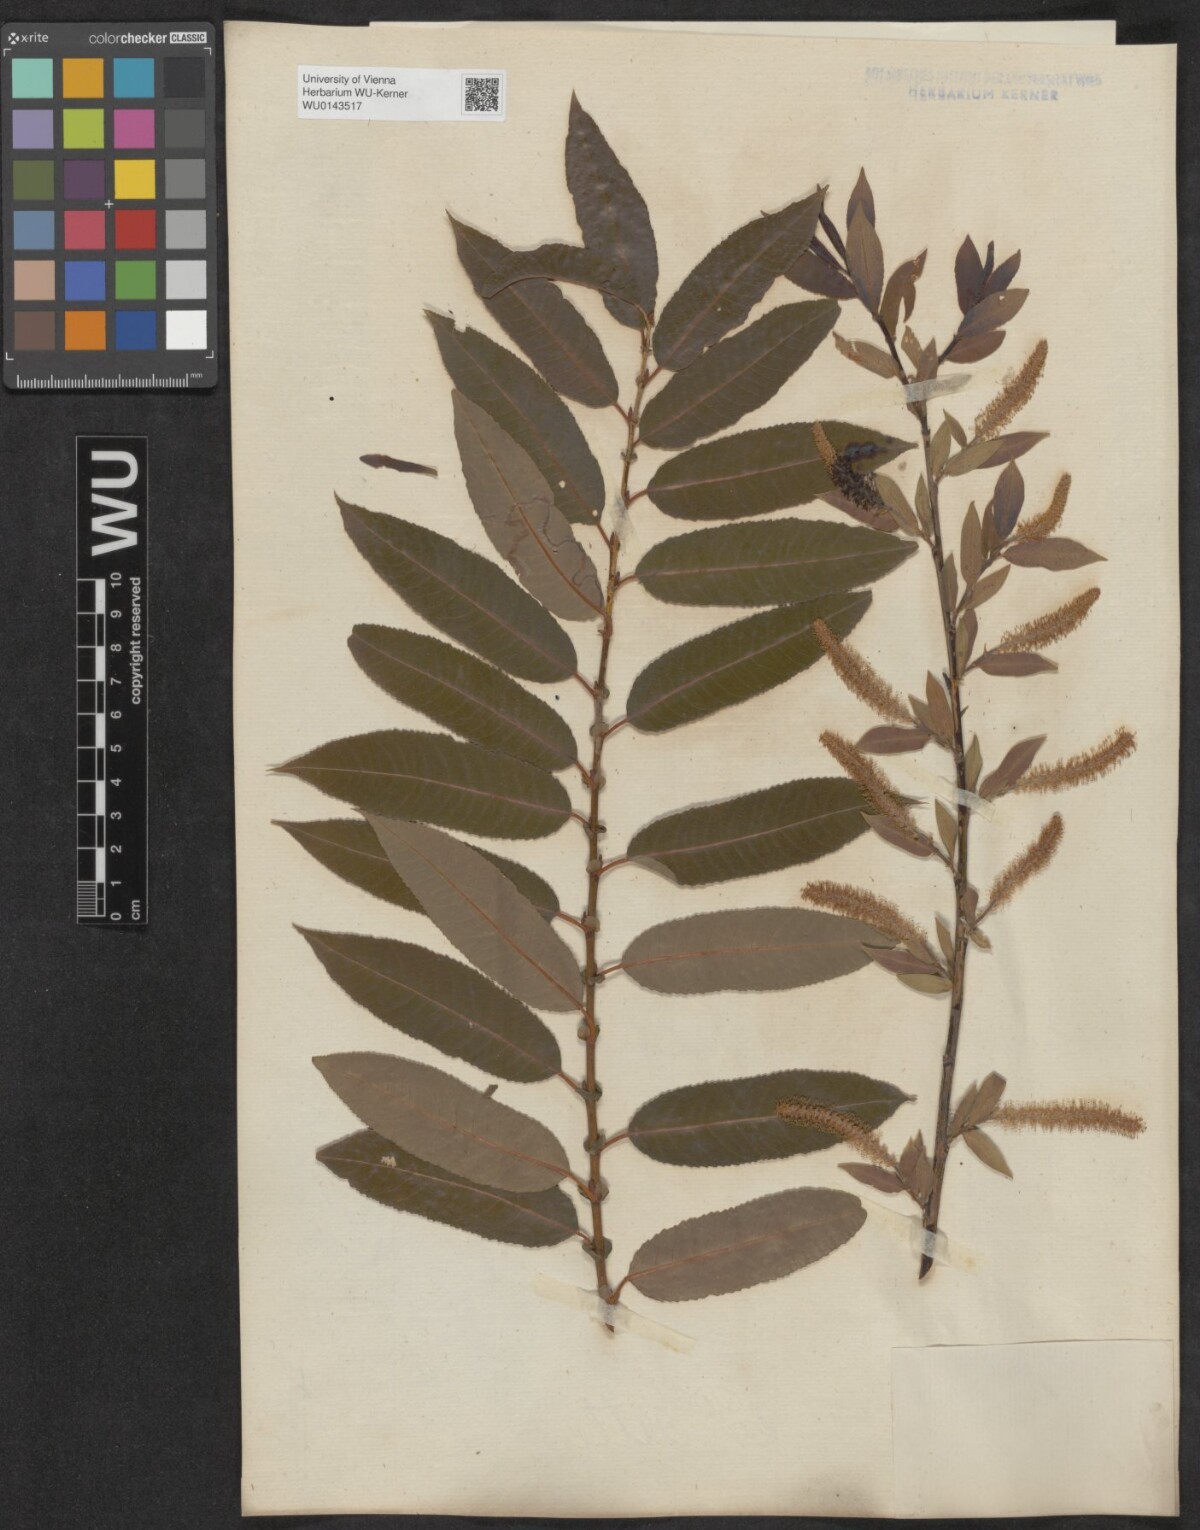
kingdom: Plantae
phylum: Tracheophyta
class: Magnoliopsida
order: Malpighiales
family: Salicaceae
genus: Salix
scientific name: Salix triandra
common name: Almond willow
